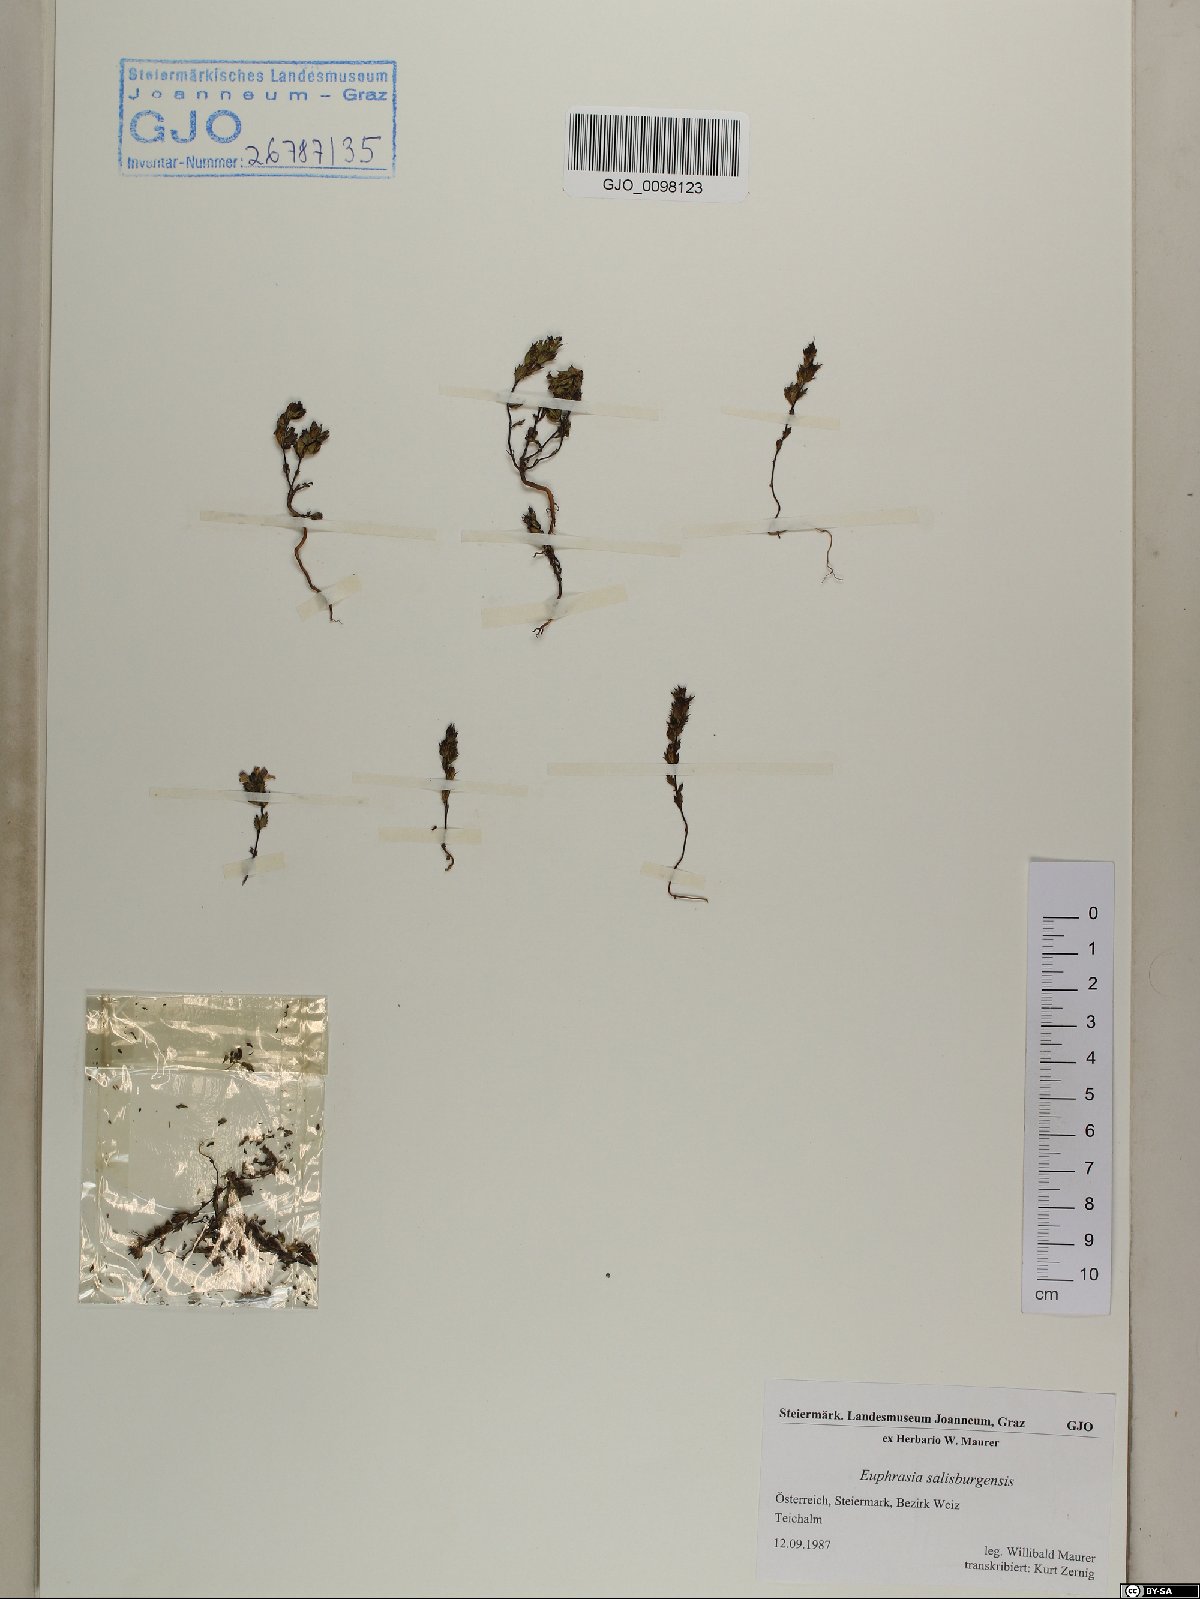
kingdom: Plantae
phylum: Tracheophyta
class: Magnoliopsida
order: Lamiales
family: Orobanchaceae
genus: Euphrasia
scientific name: Euphrasia salisburgensis
